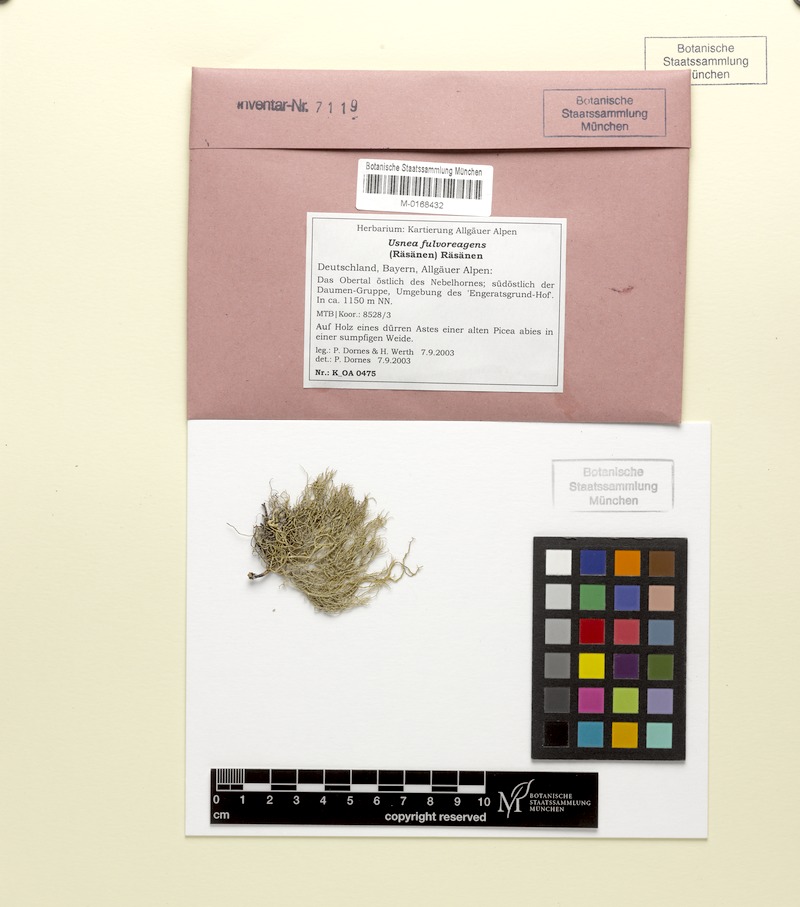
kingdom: Fungi
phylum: Ascomycota
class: Lecanoromycetes
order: Lecanorales
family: Parmeliaceae
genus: Usnea
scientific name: Usnea fulvoreagens
